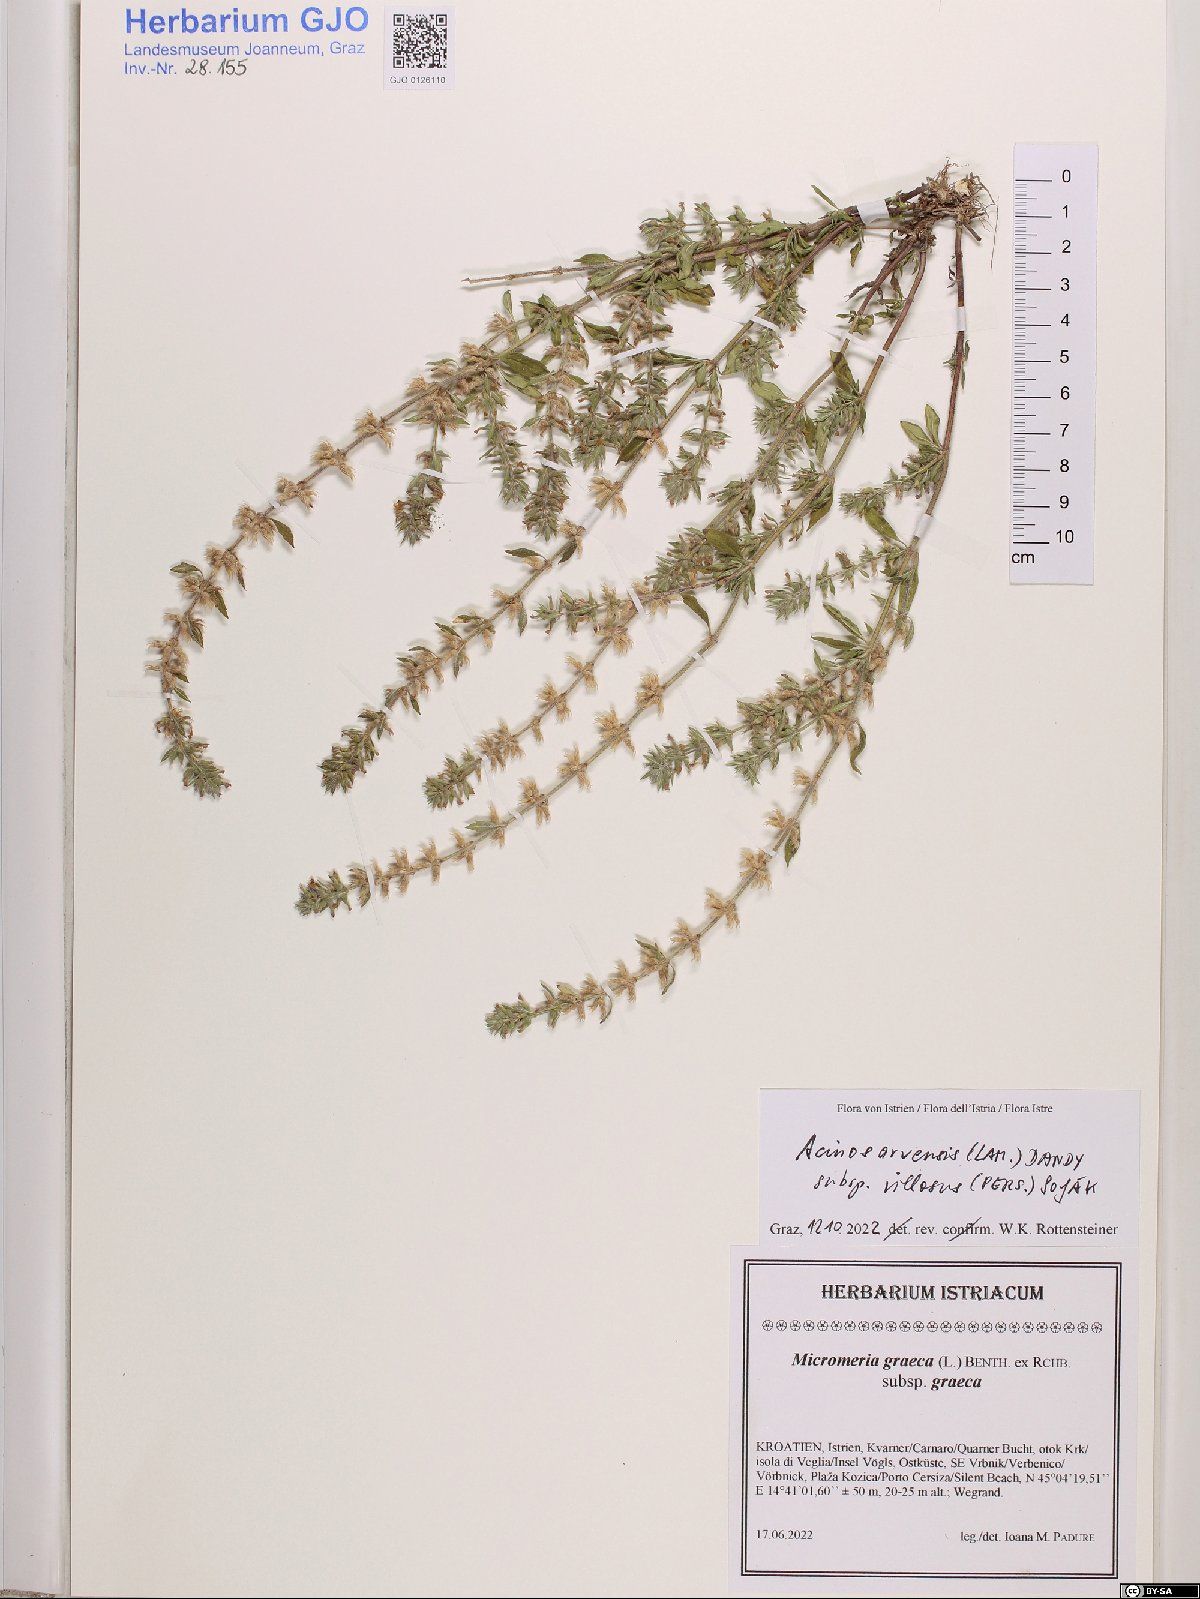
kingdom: Plantae
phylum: Tracheophyta
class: Magnoliopsida
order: Lamiales
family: Lamiaceae
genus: Clinopodium
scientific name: Clinopodium acinos
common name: Basil thyme
